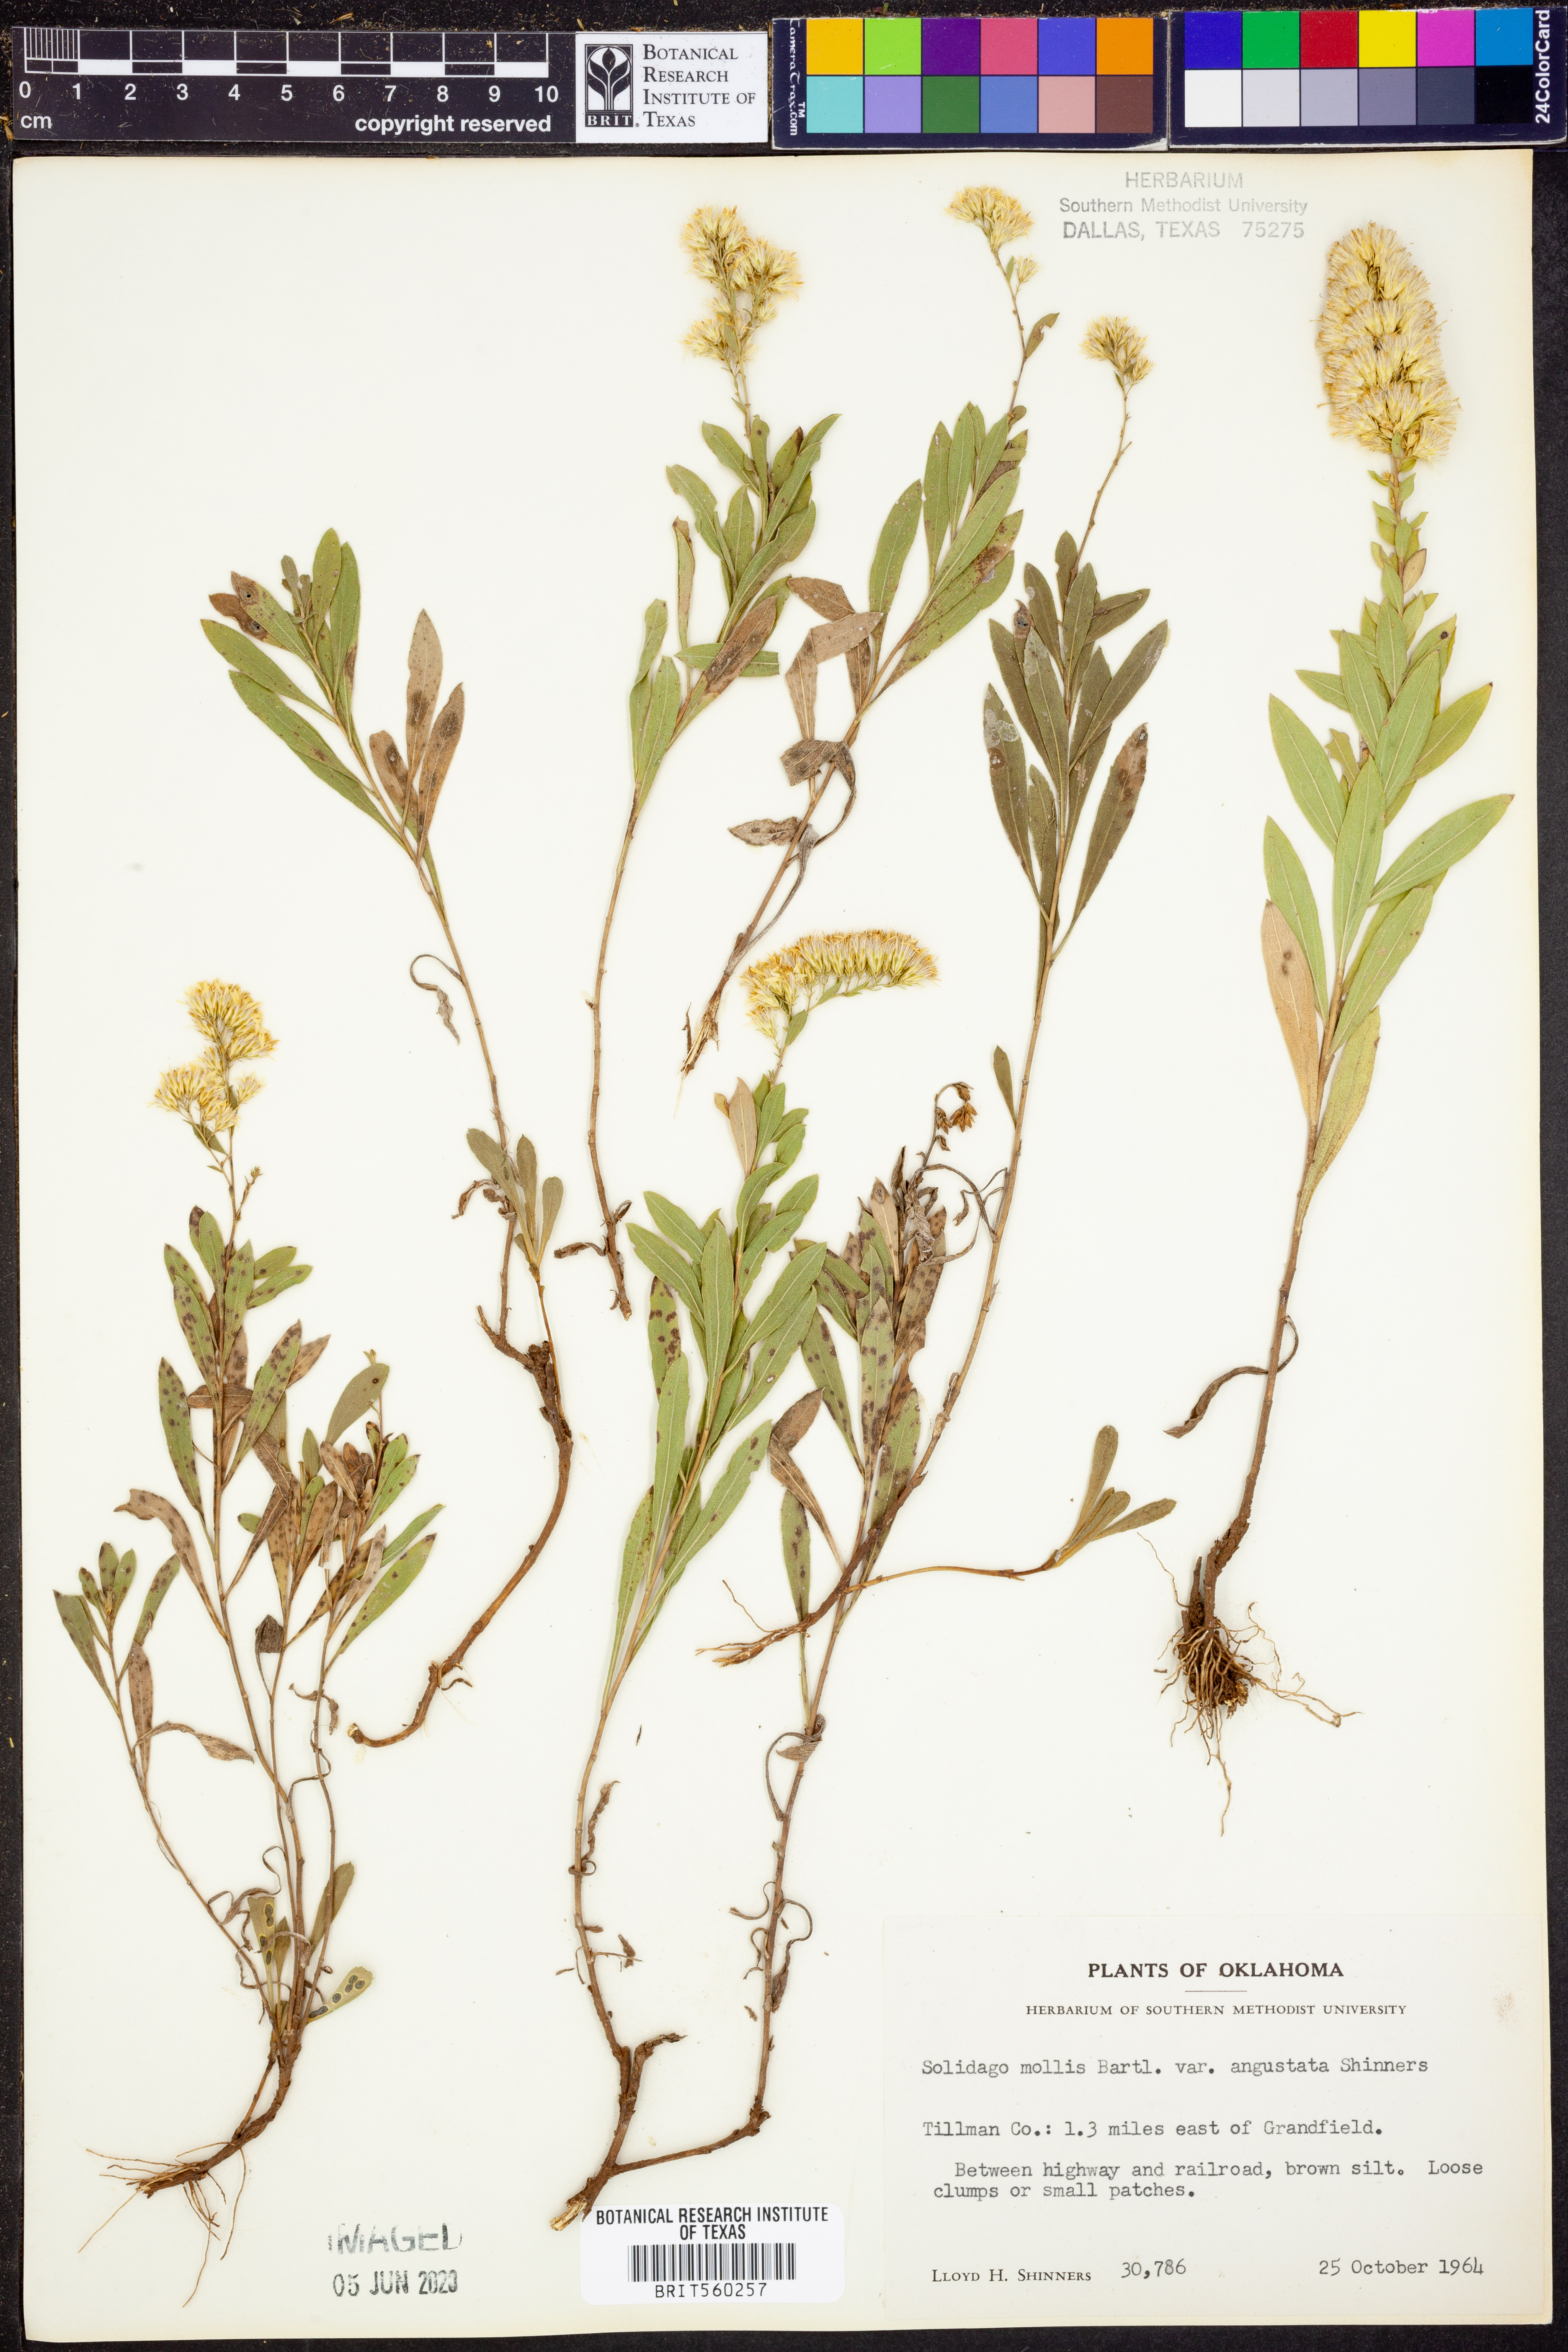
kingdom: Plantae
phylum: Tracheophyta
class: Magnoliopsida
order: Asterales
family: Asteraceae
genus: Solidago
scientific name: Solidago mollis
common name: Ashly goldenrod
